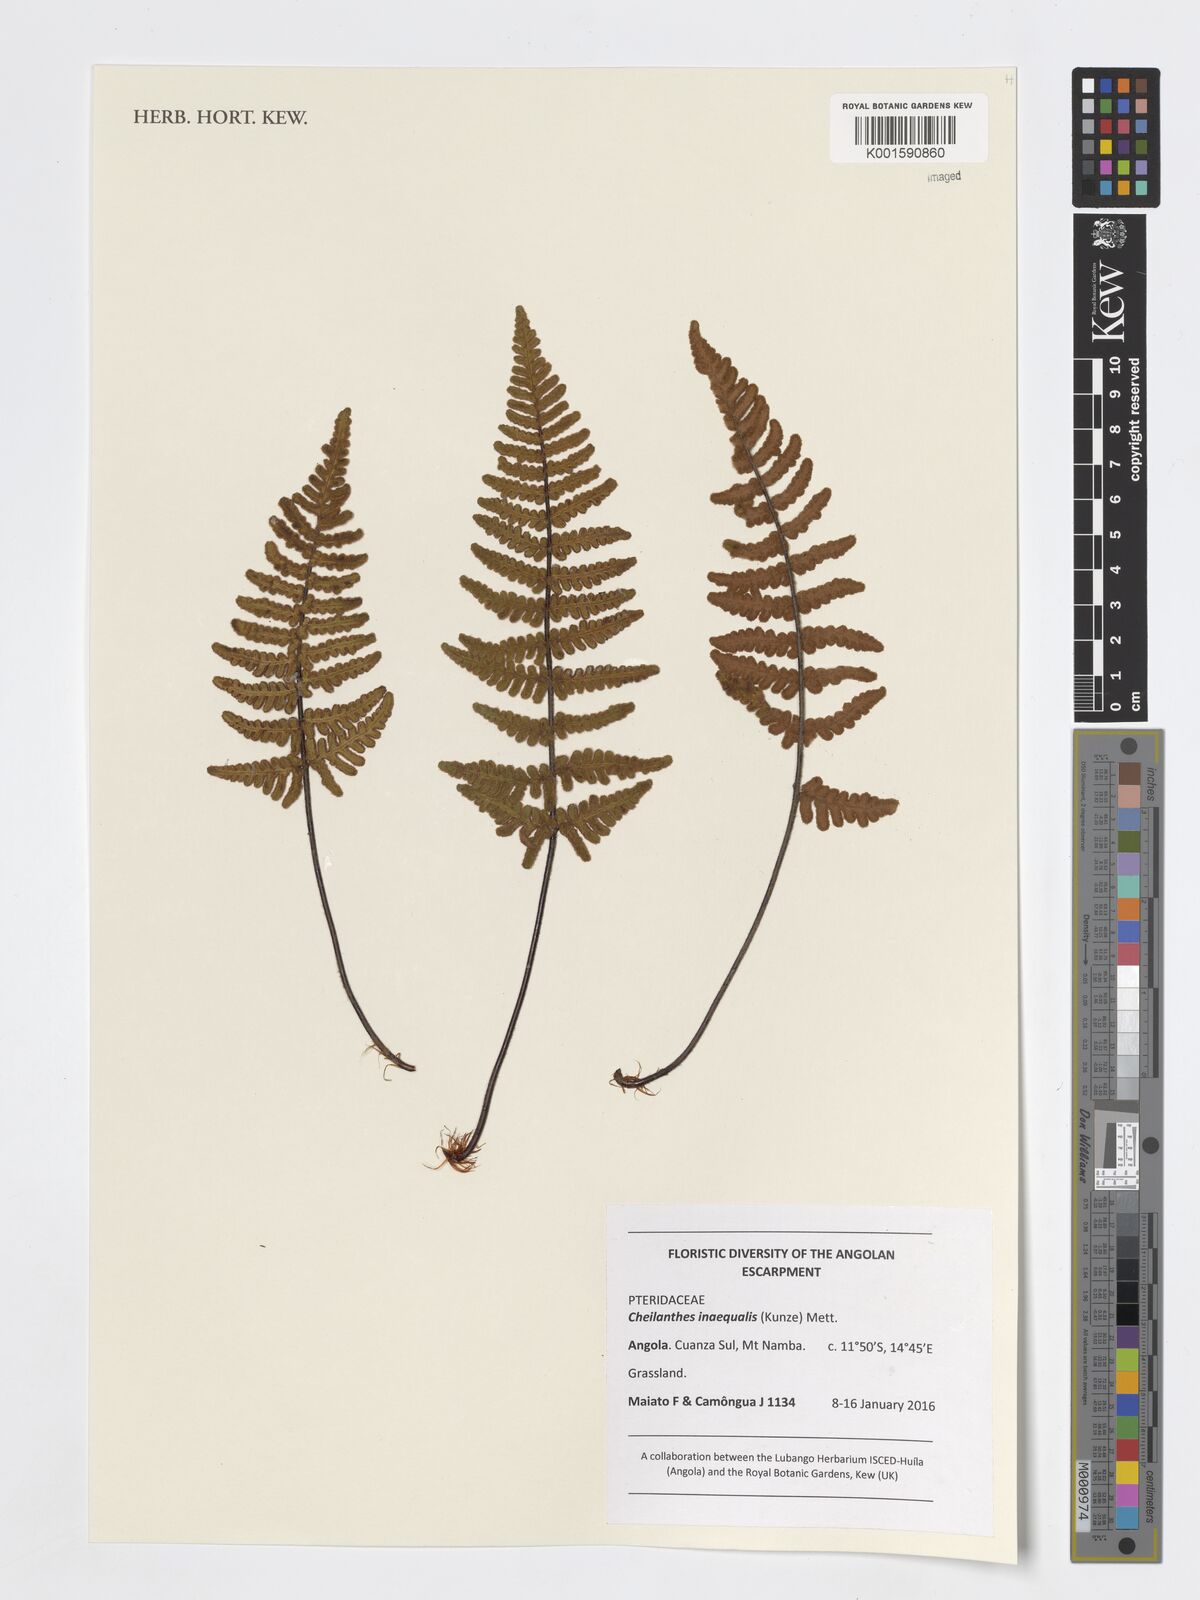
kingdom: Plantae
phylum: Tracheophyta
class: Polypodiopsida
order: Polypodiales
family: Pteridaceae
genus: Cheilanthes
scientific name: Cheilanthes inaequalis
